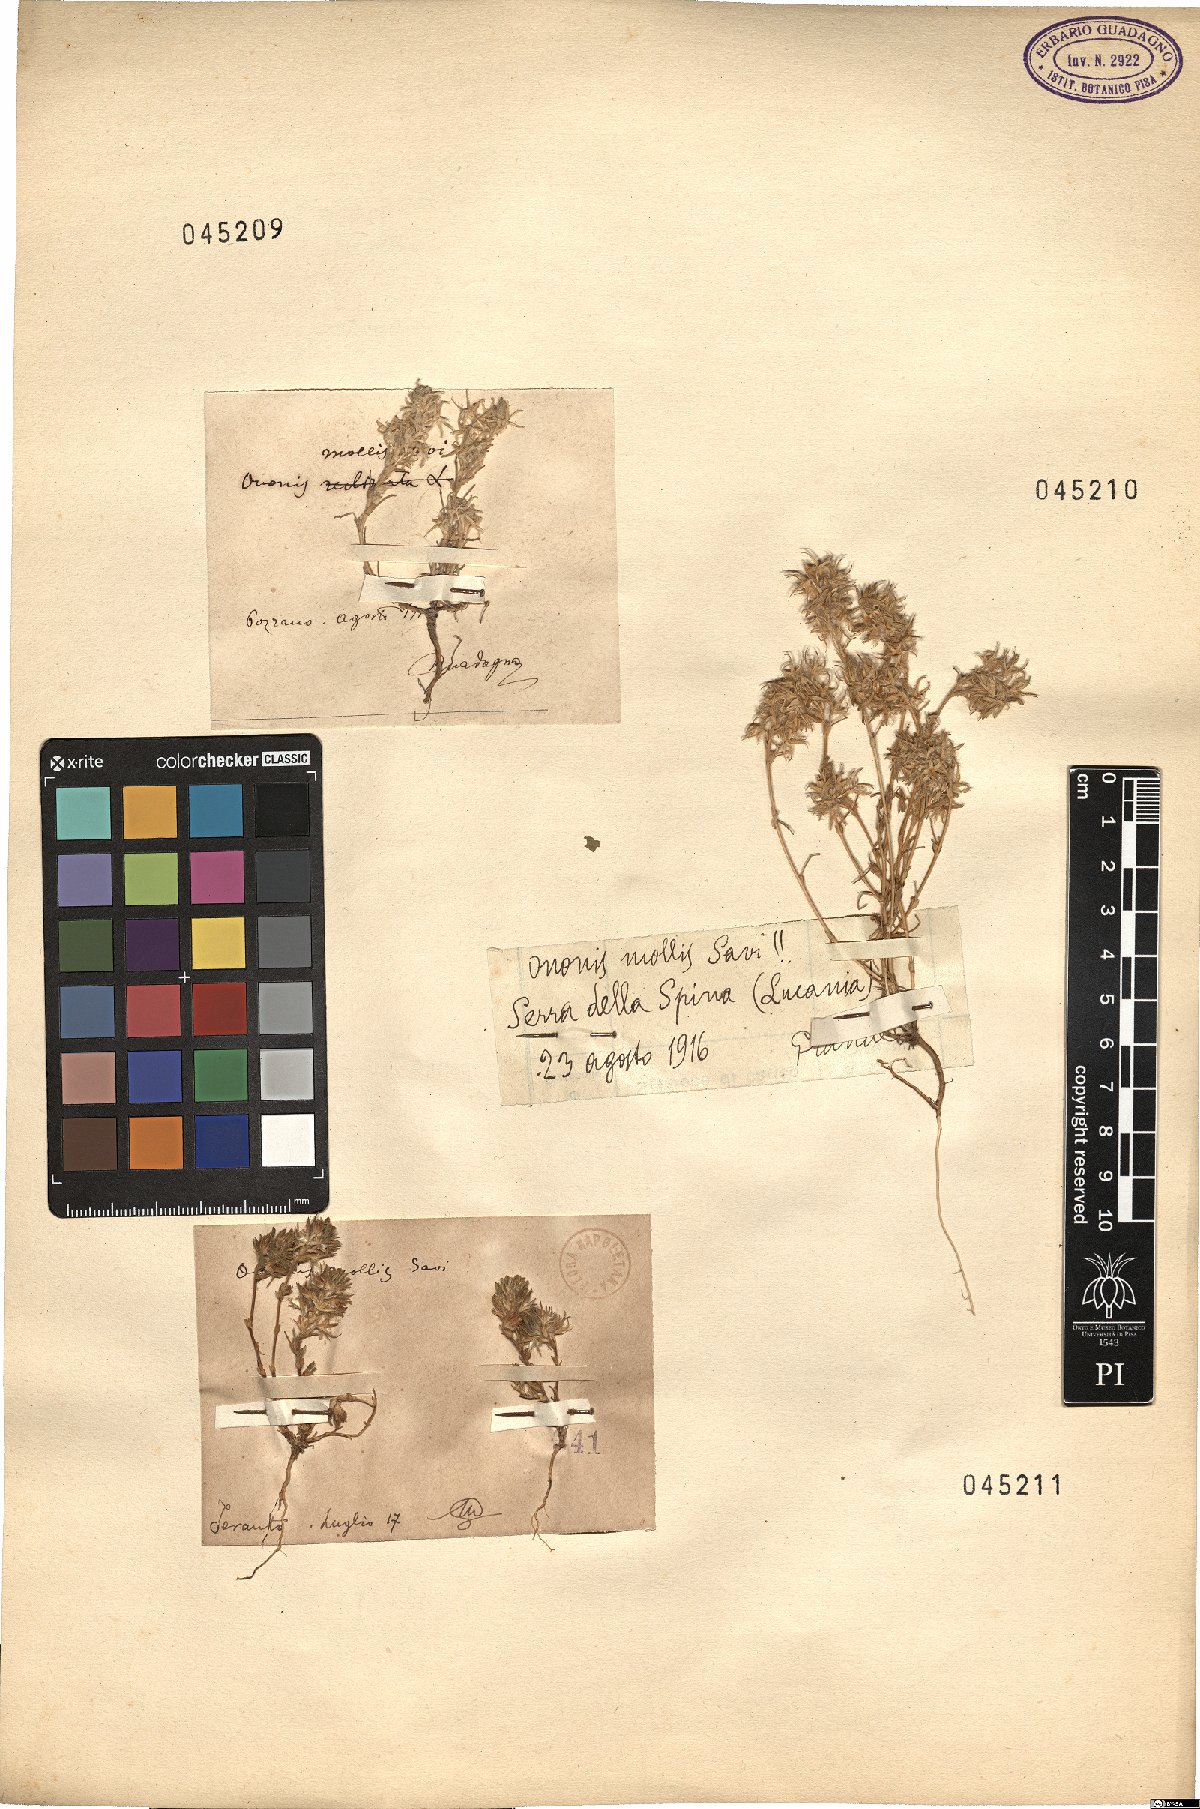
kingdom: Plantae
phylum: Tracheophyta
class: Magnoliopsida
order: Fabales
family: Fabaceae
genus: Ononis
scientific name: Ononis reclinata
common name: Small restharrow
